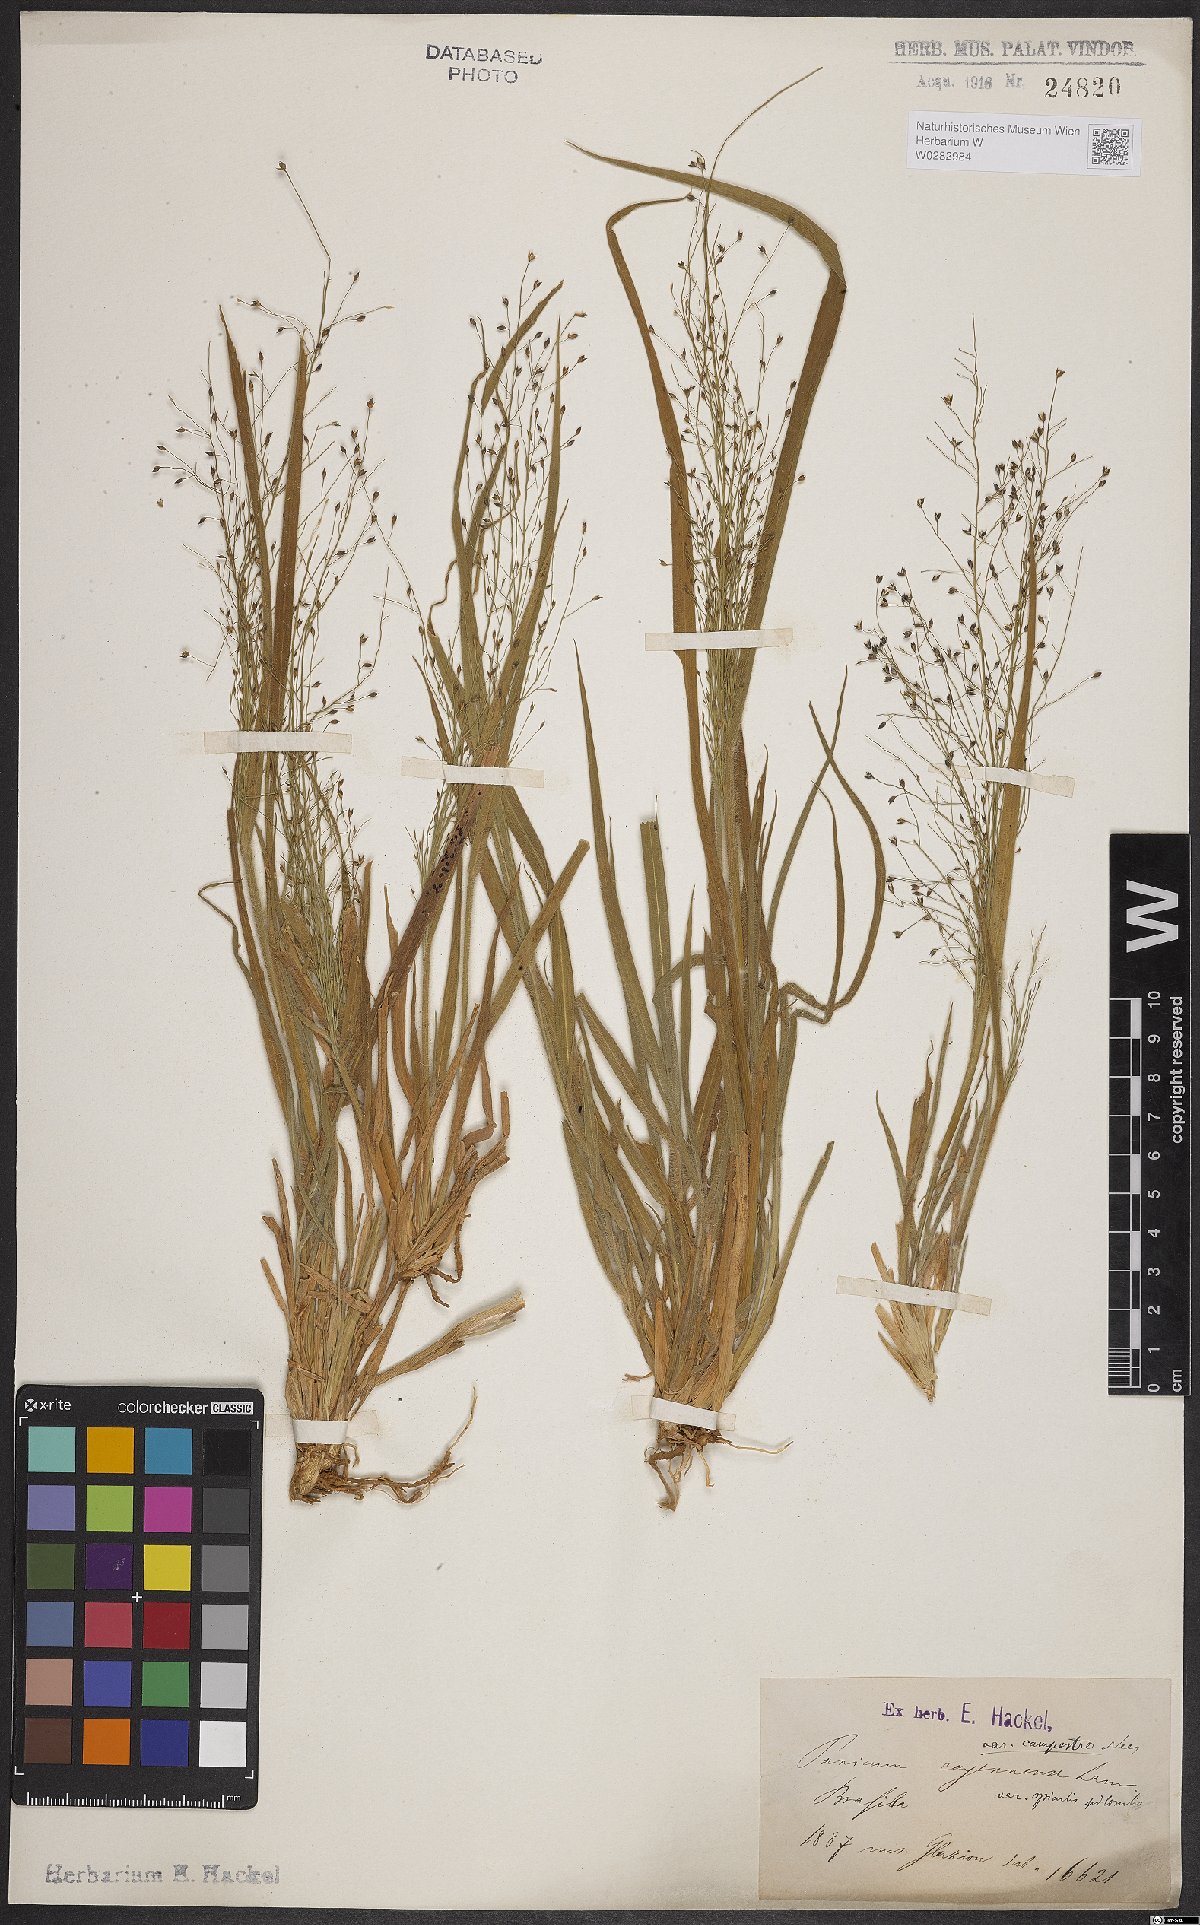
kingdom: Plantae
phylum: Tracheophyta
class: Liliopsida
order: Poales
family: Poaceae
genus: Panicum
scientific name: Panicum peladoense
